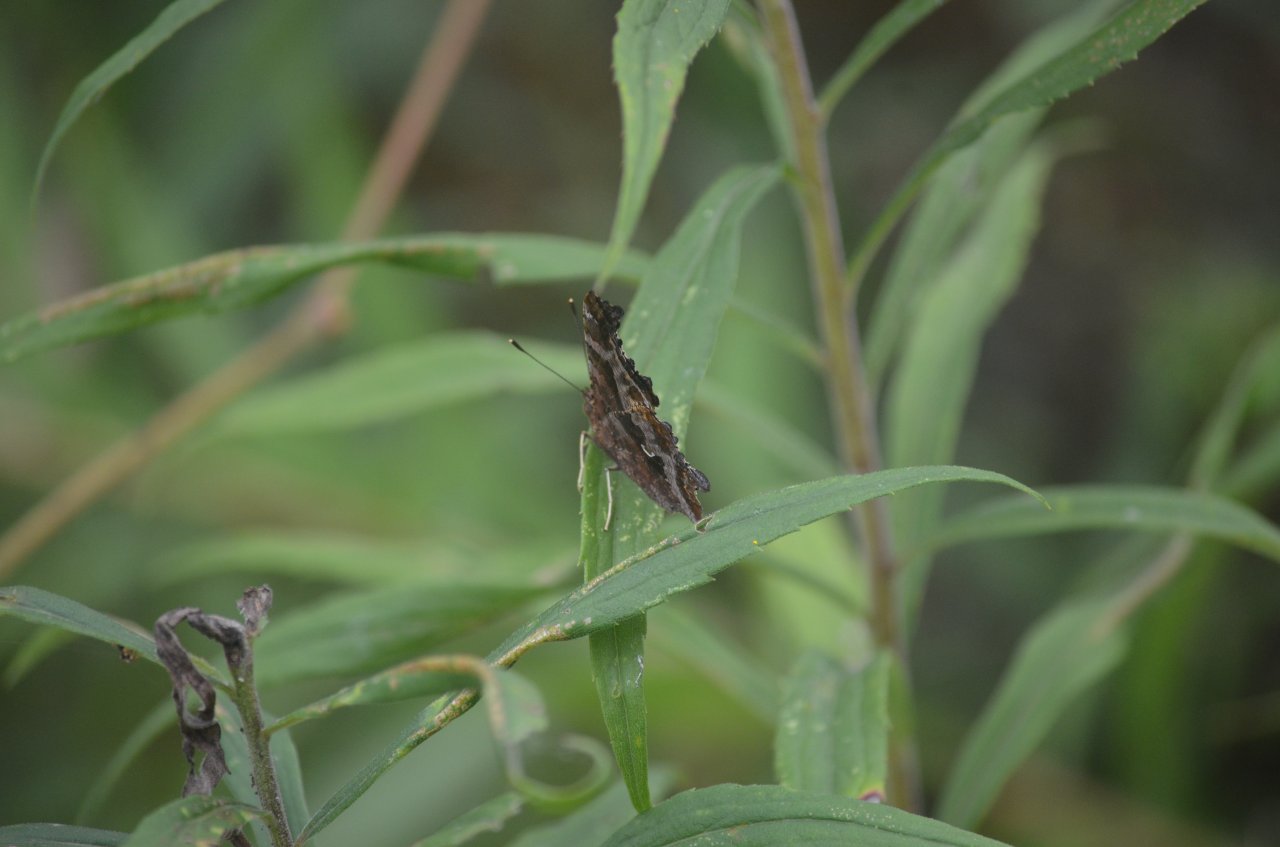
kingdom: Animalia
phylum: Arthropoda
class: Insecta
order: Lepidoptera
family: Nymphalidae
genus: Polygonia
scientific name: Polygonia comma
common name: Eastern Comma
